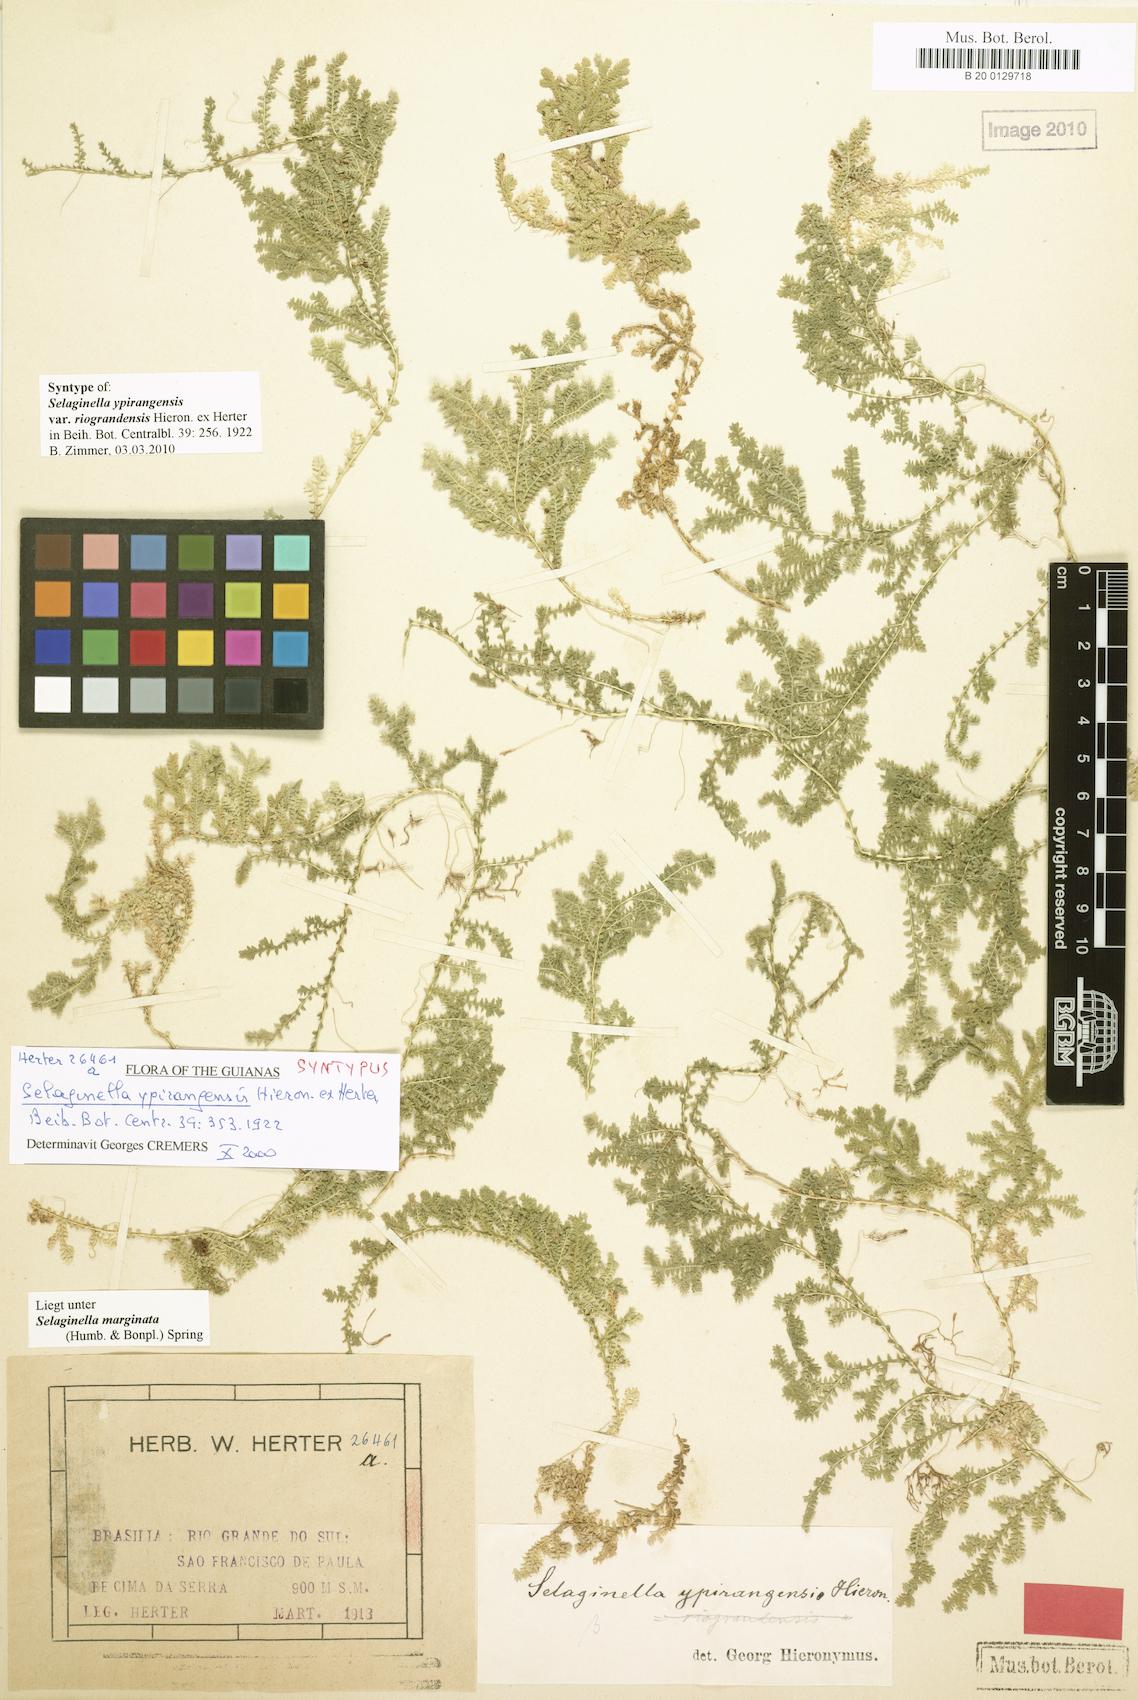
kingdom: Plantae
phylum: Tracheophyta
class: Lycopodiopsida
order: Selaginellales
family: Selaginellaceae
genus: Selaginella
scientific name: Selaginella marginata
